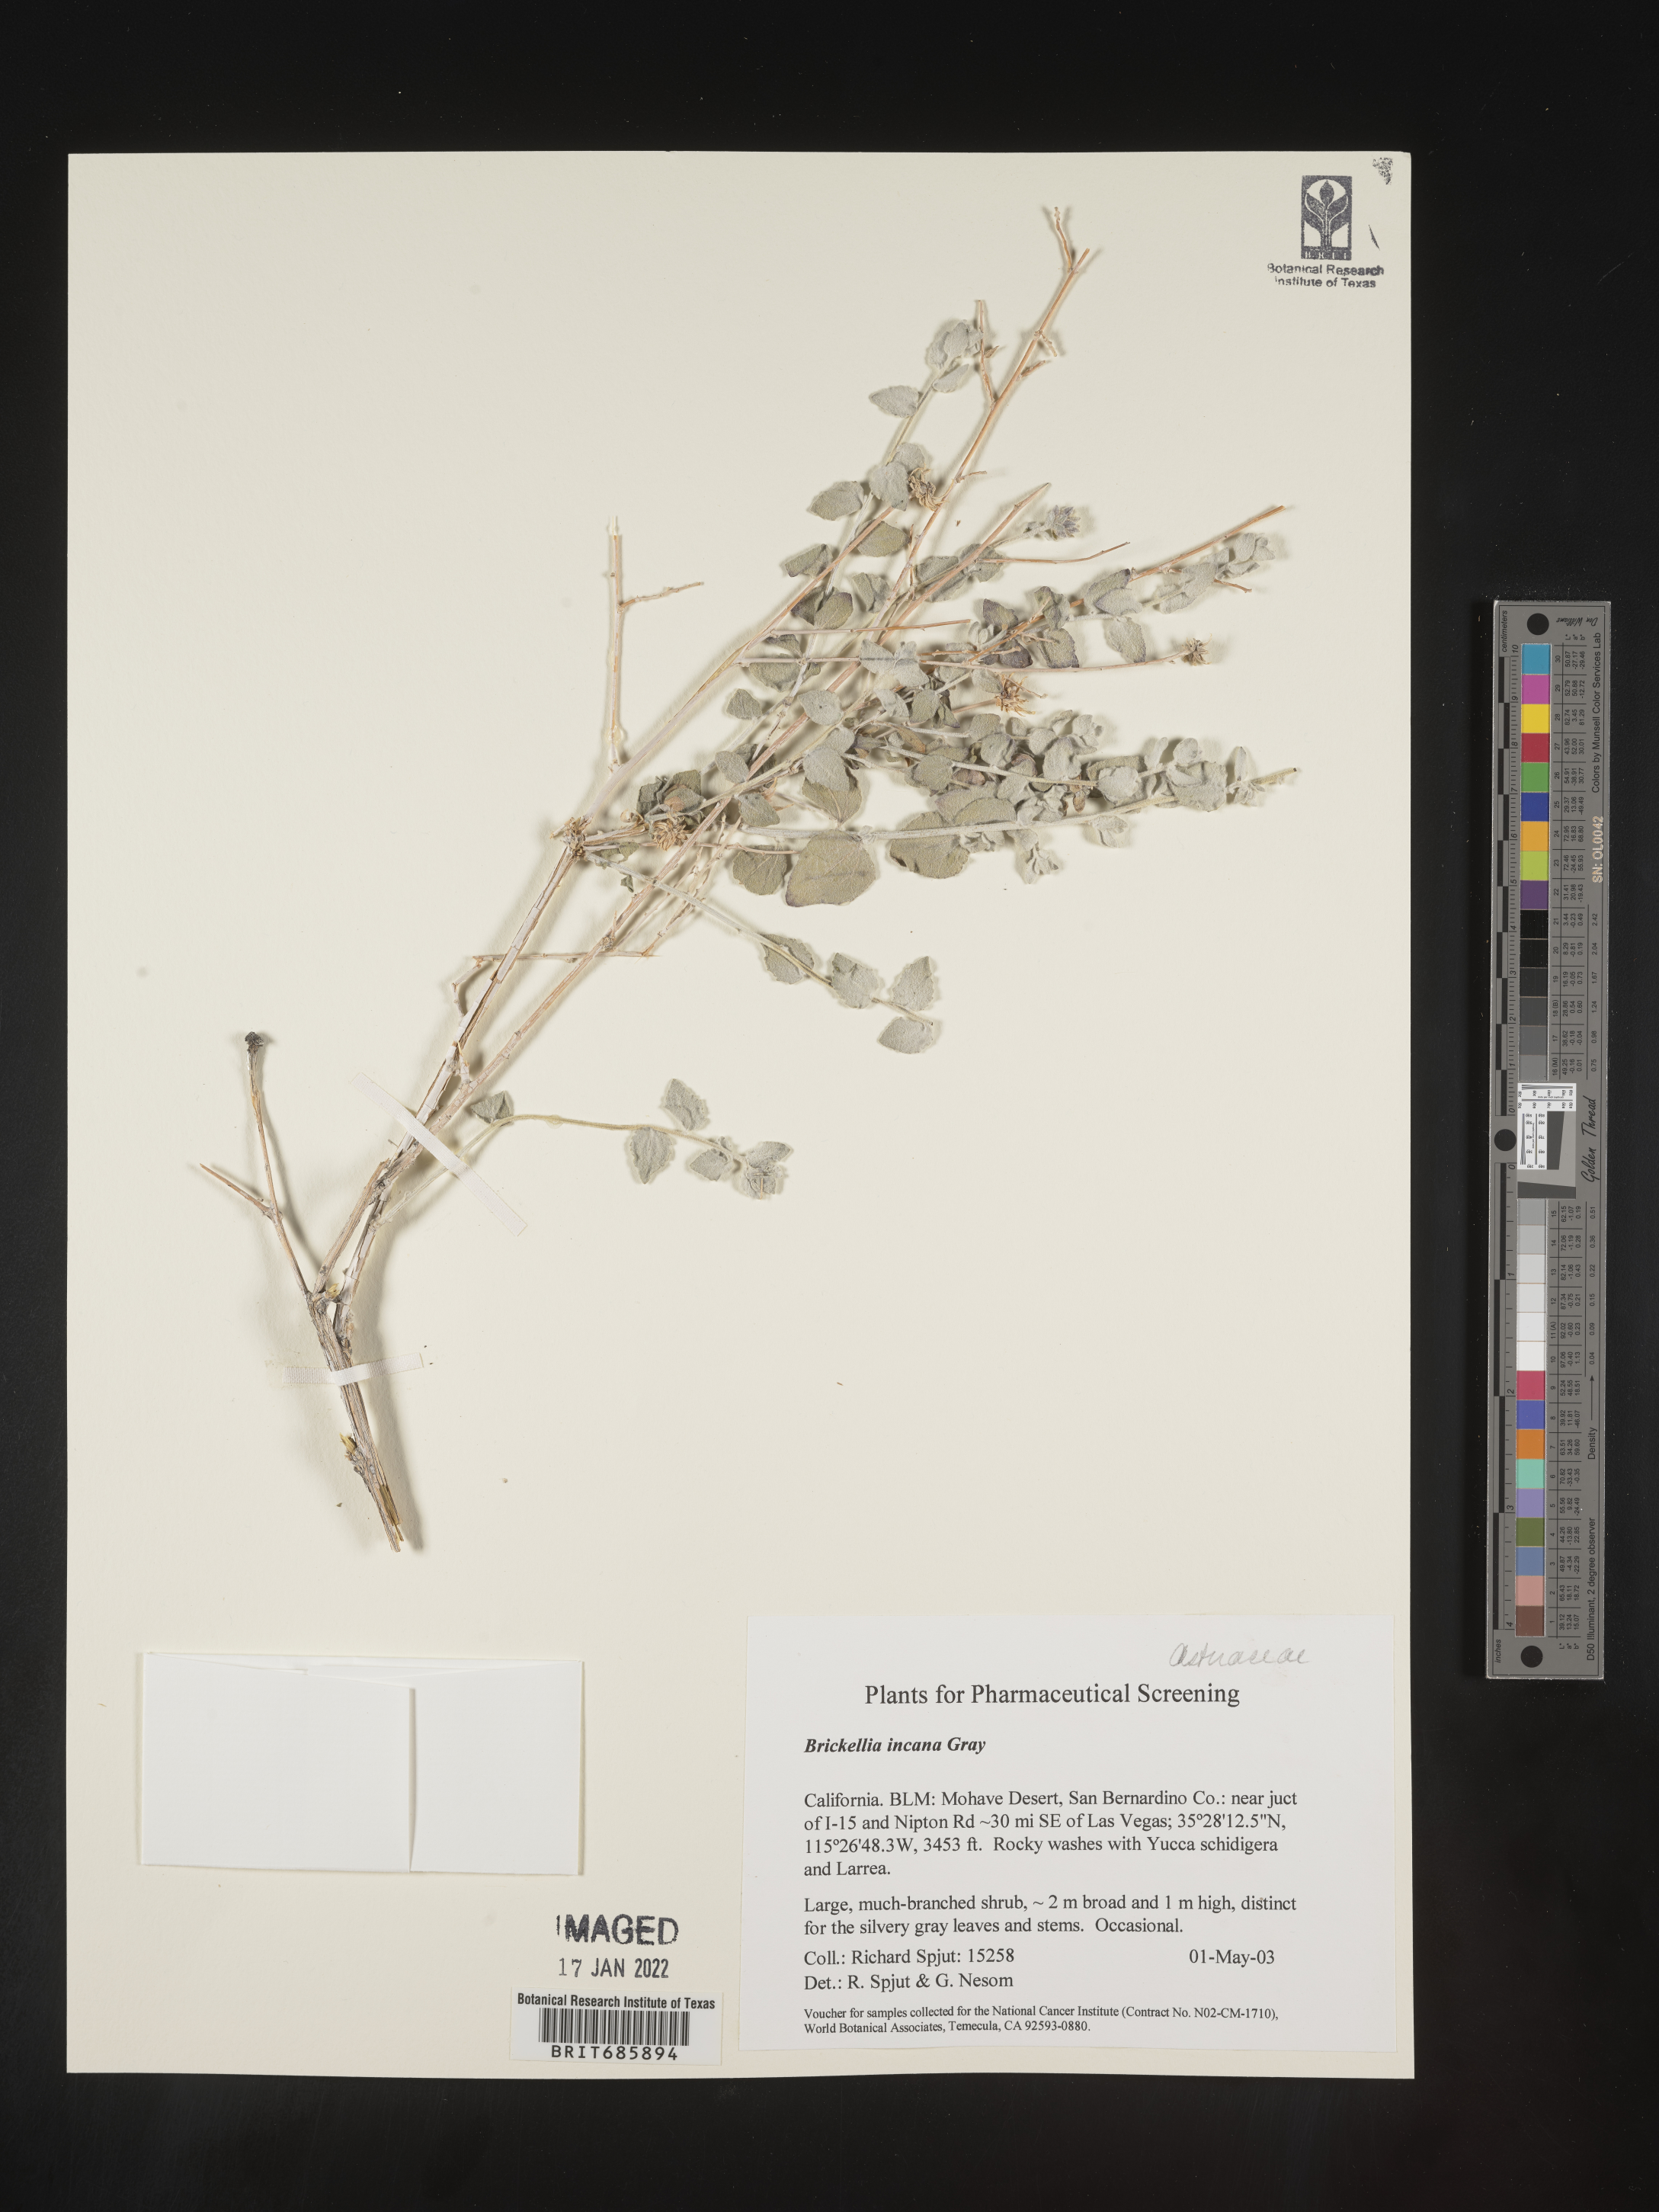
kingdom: Plantae
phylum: Tracheophyta
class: Magnoliopsida
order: Asterales
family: Asteraceae
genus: Brickellia
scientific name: Brickellia incana
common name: Woolly brickelbush
